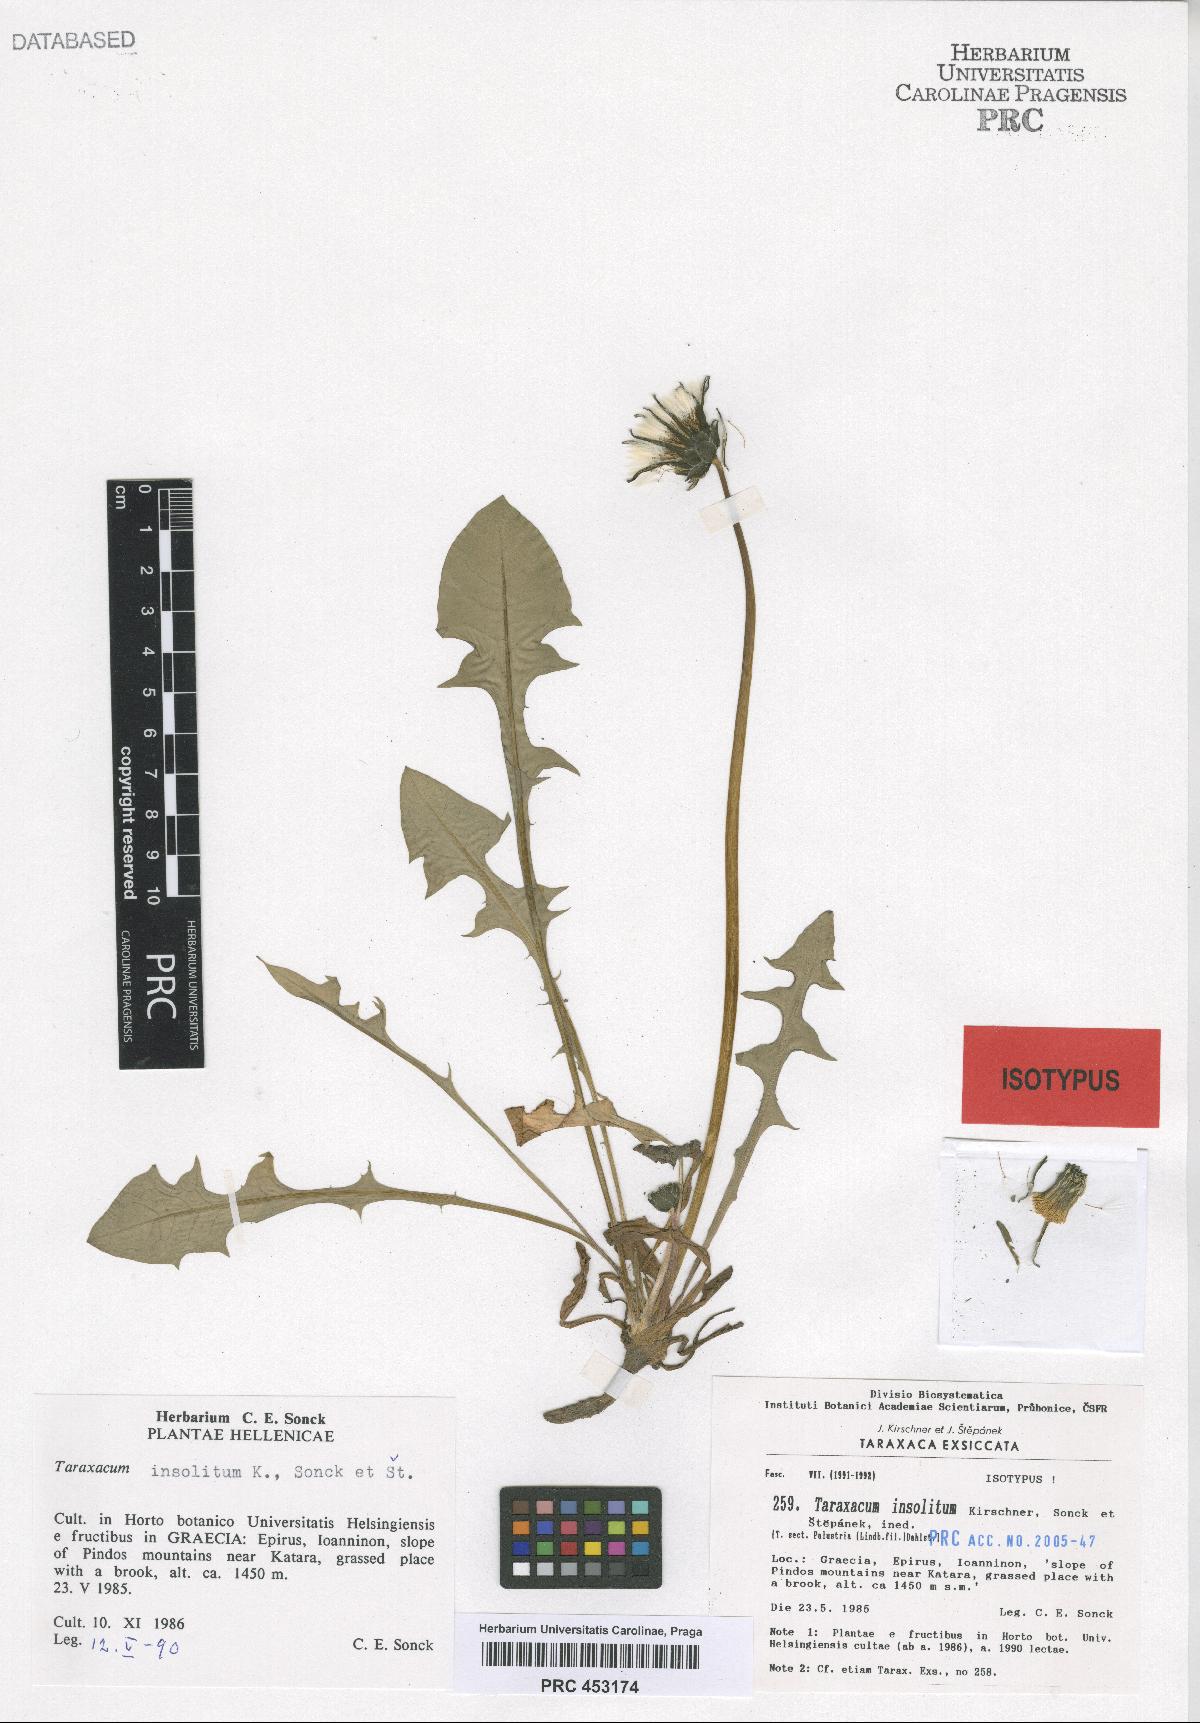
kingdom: Plantae
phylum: Tracheophyta
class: Magnoliopsida
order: Asterales
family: Asteraceae
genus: Taraxacum
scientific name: Taraxacum insolitum
